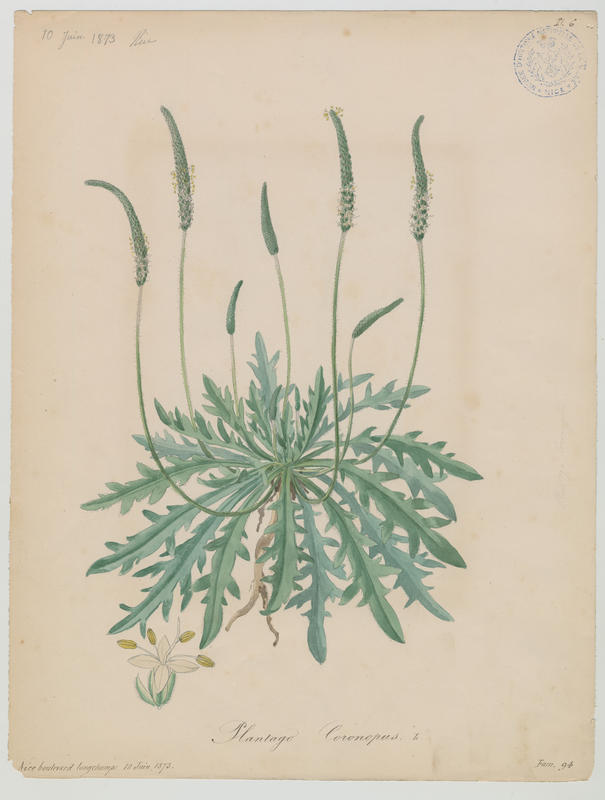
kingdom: Plantae
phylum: Tracheophyta
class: Magnoliopsida
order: Lamiales
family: Plantaginaceae
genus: Plantago
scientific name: Plantago coronopus
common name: Buck's-horn plantain
